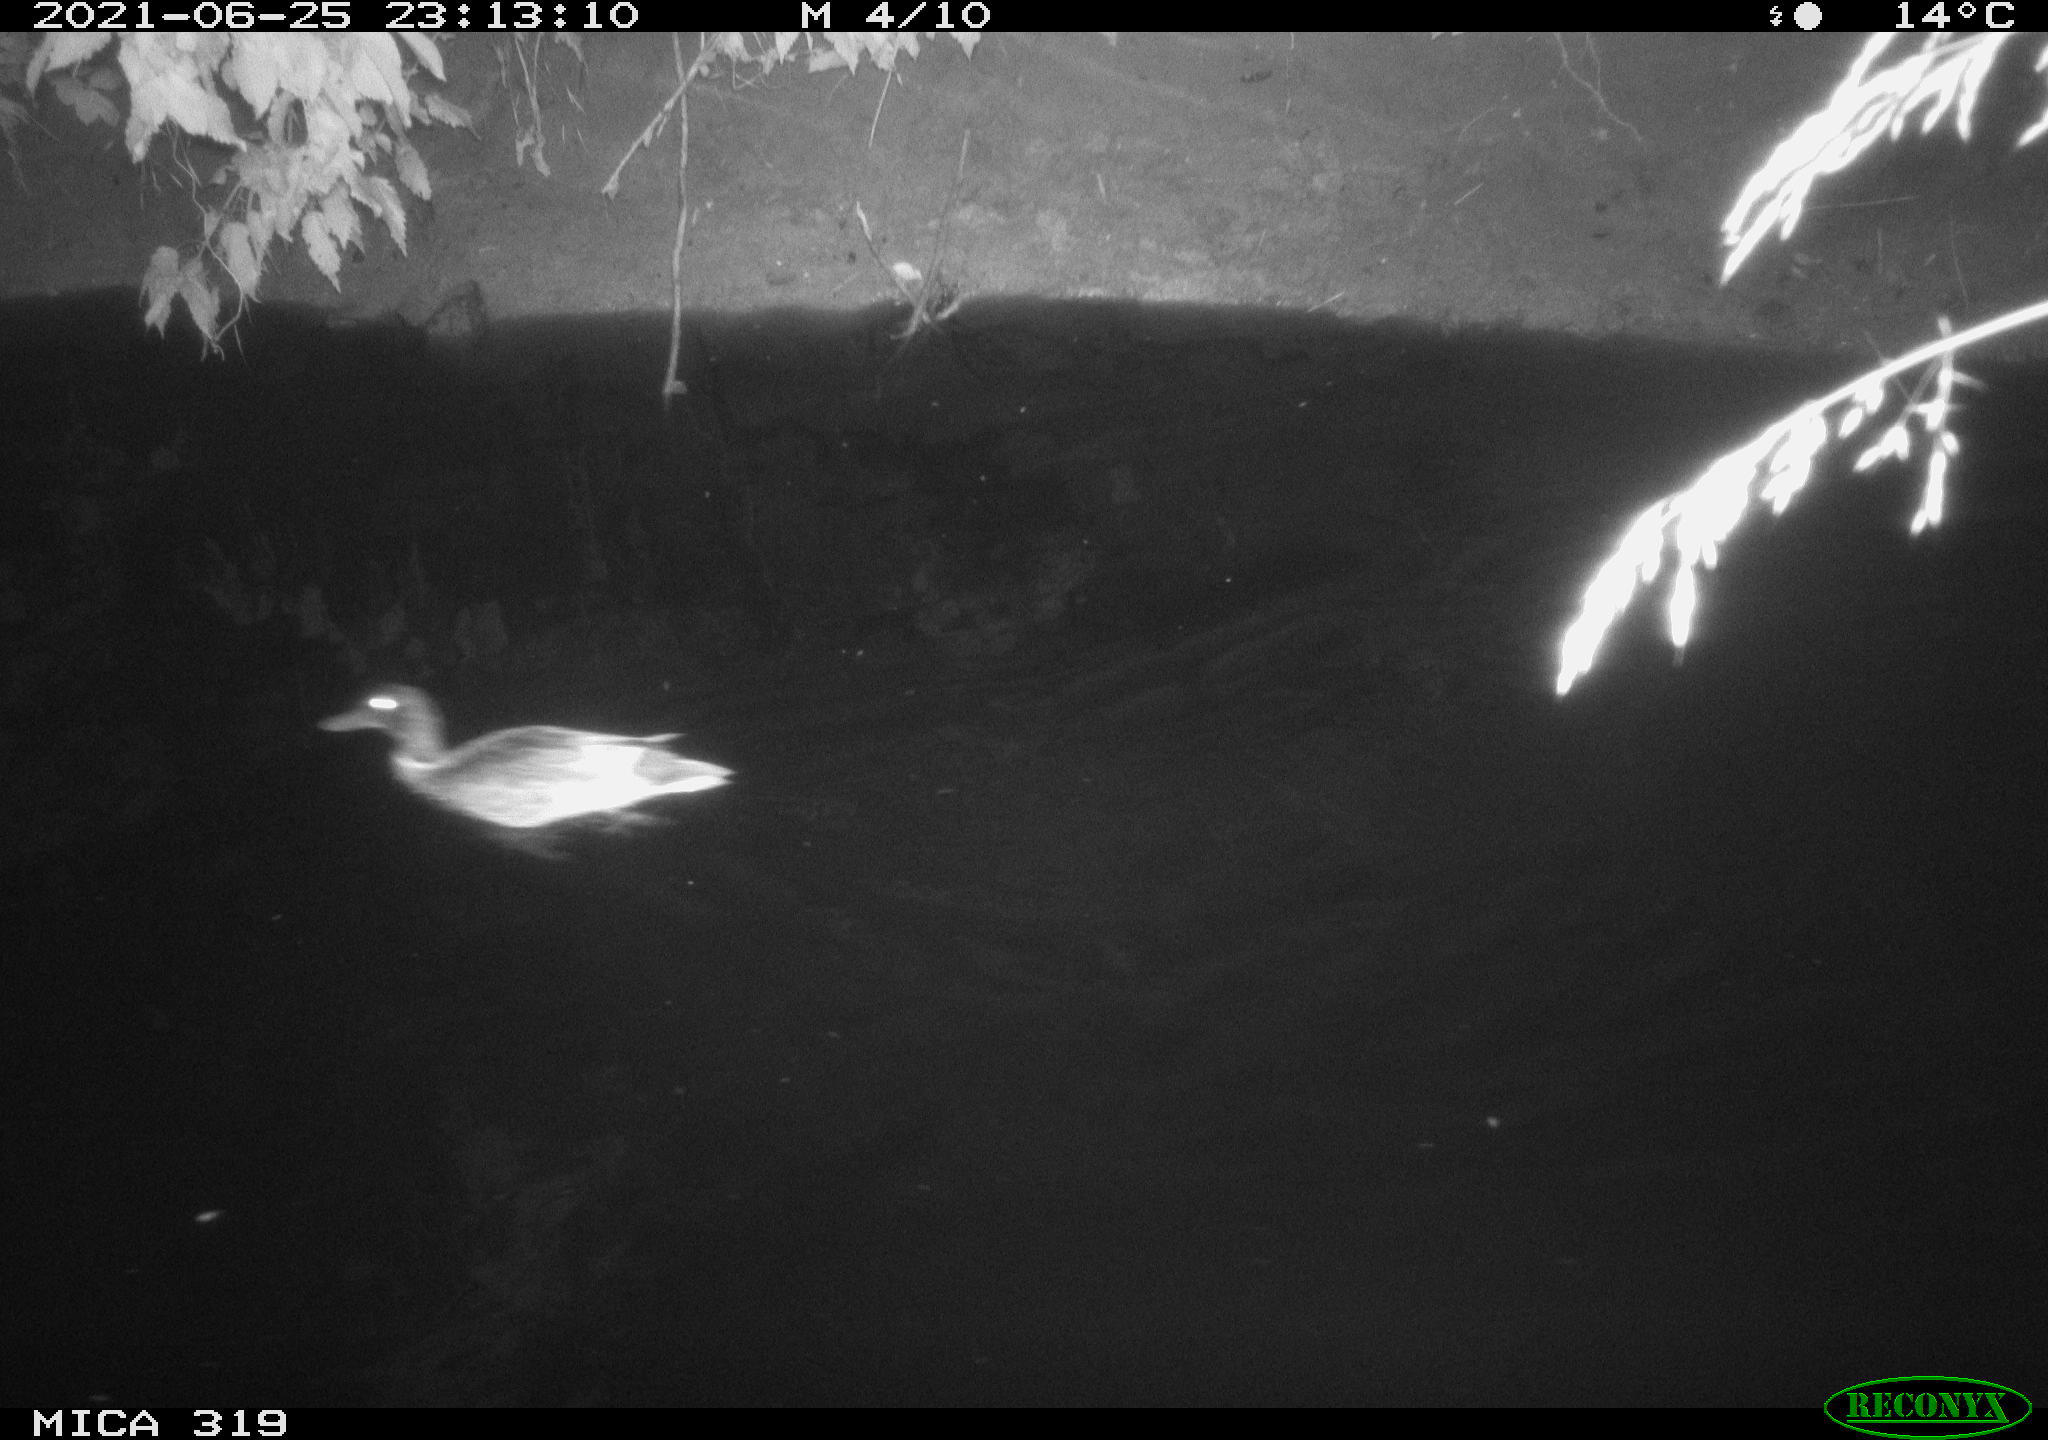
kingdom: Animalia
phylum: Chordata
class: Aves
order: Anseriformes
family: Anatidae
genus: Anas
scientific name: Anas platyrhynchos
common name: Mallard
